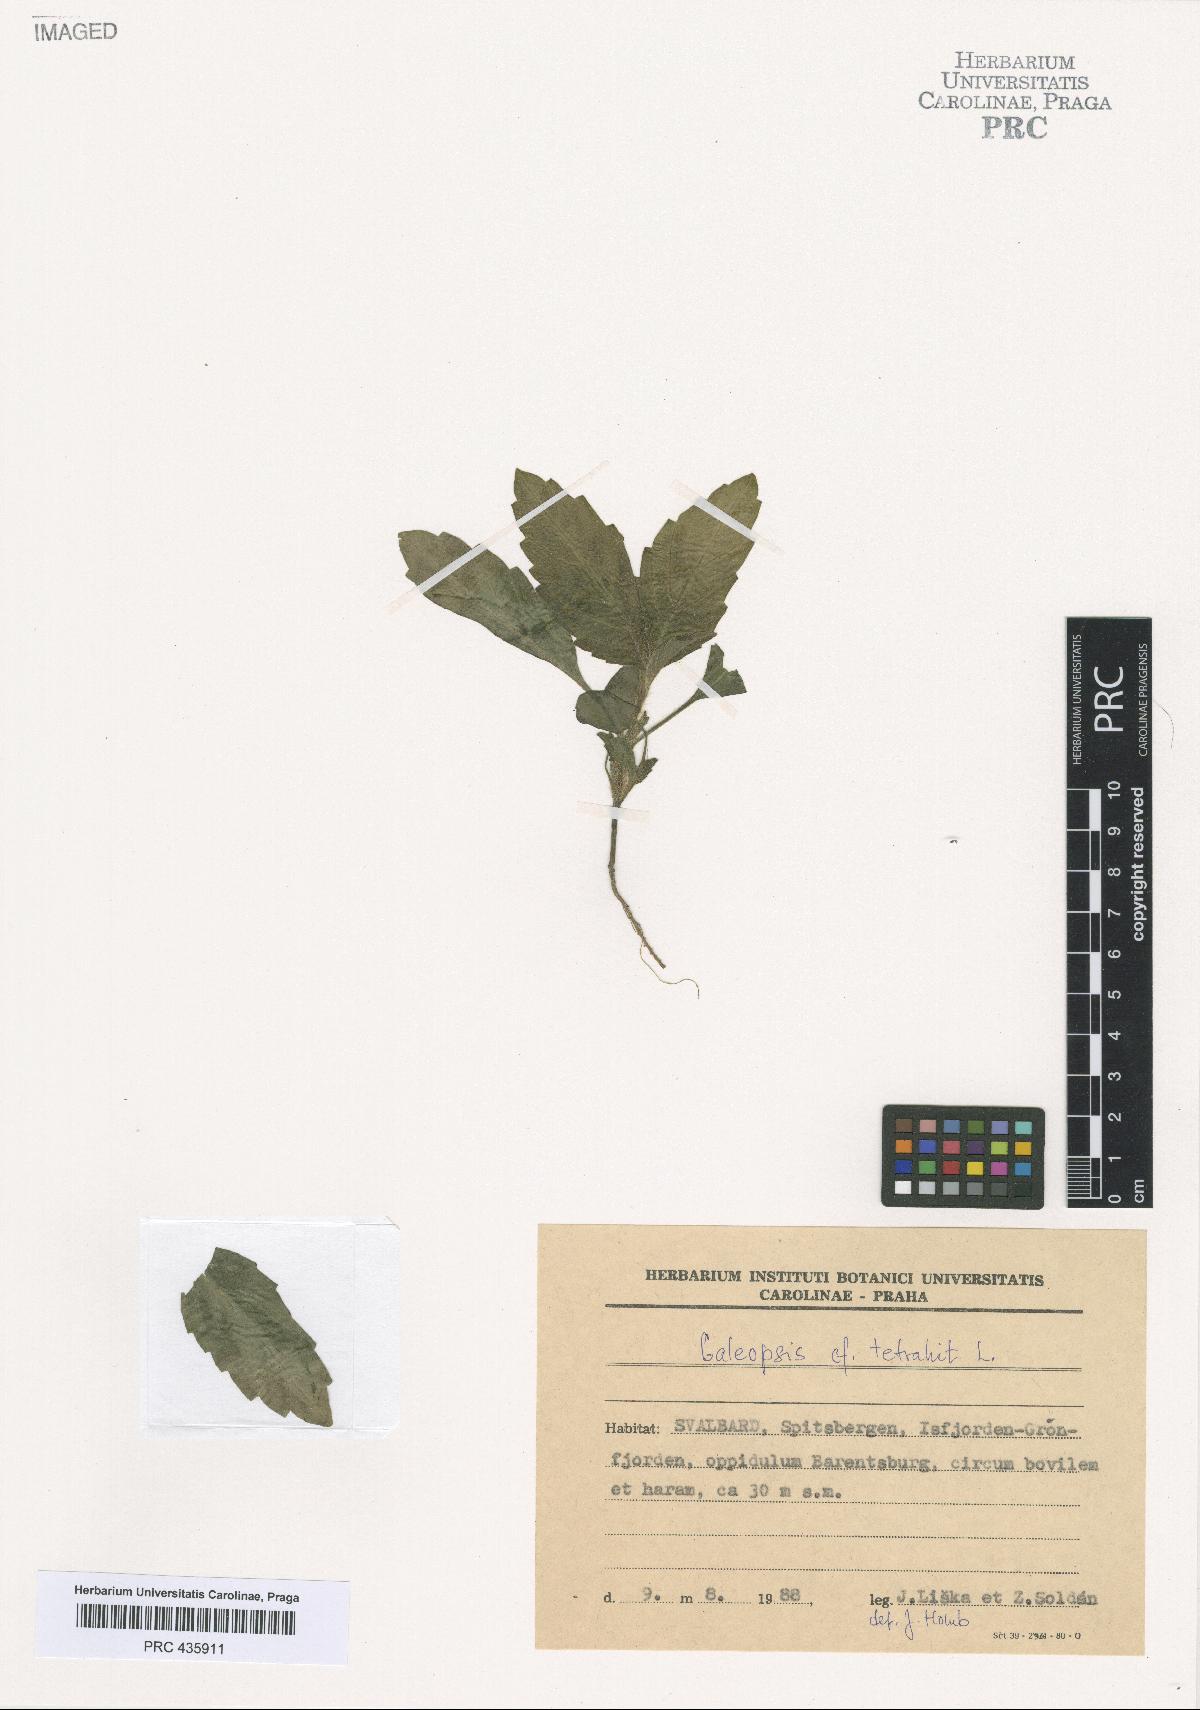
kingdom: Plantae
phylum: Tracheophyta
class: Magnoliopsida
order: Lamiales
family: Lamiaceae
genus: Galeopsis
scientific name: Galeopsis tetrahit
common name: Common hemp-nettle
